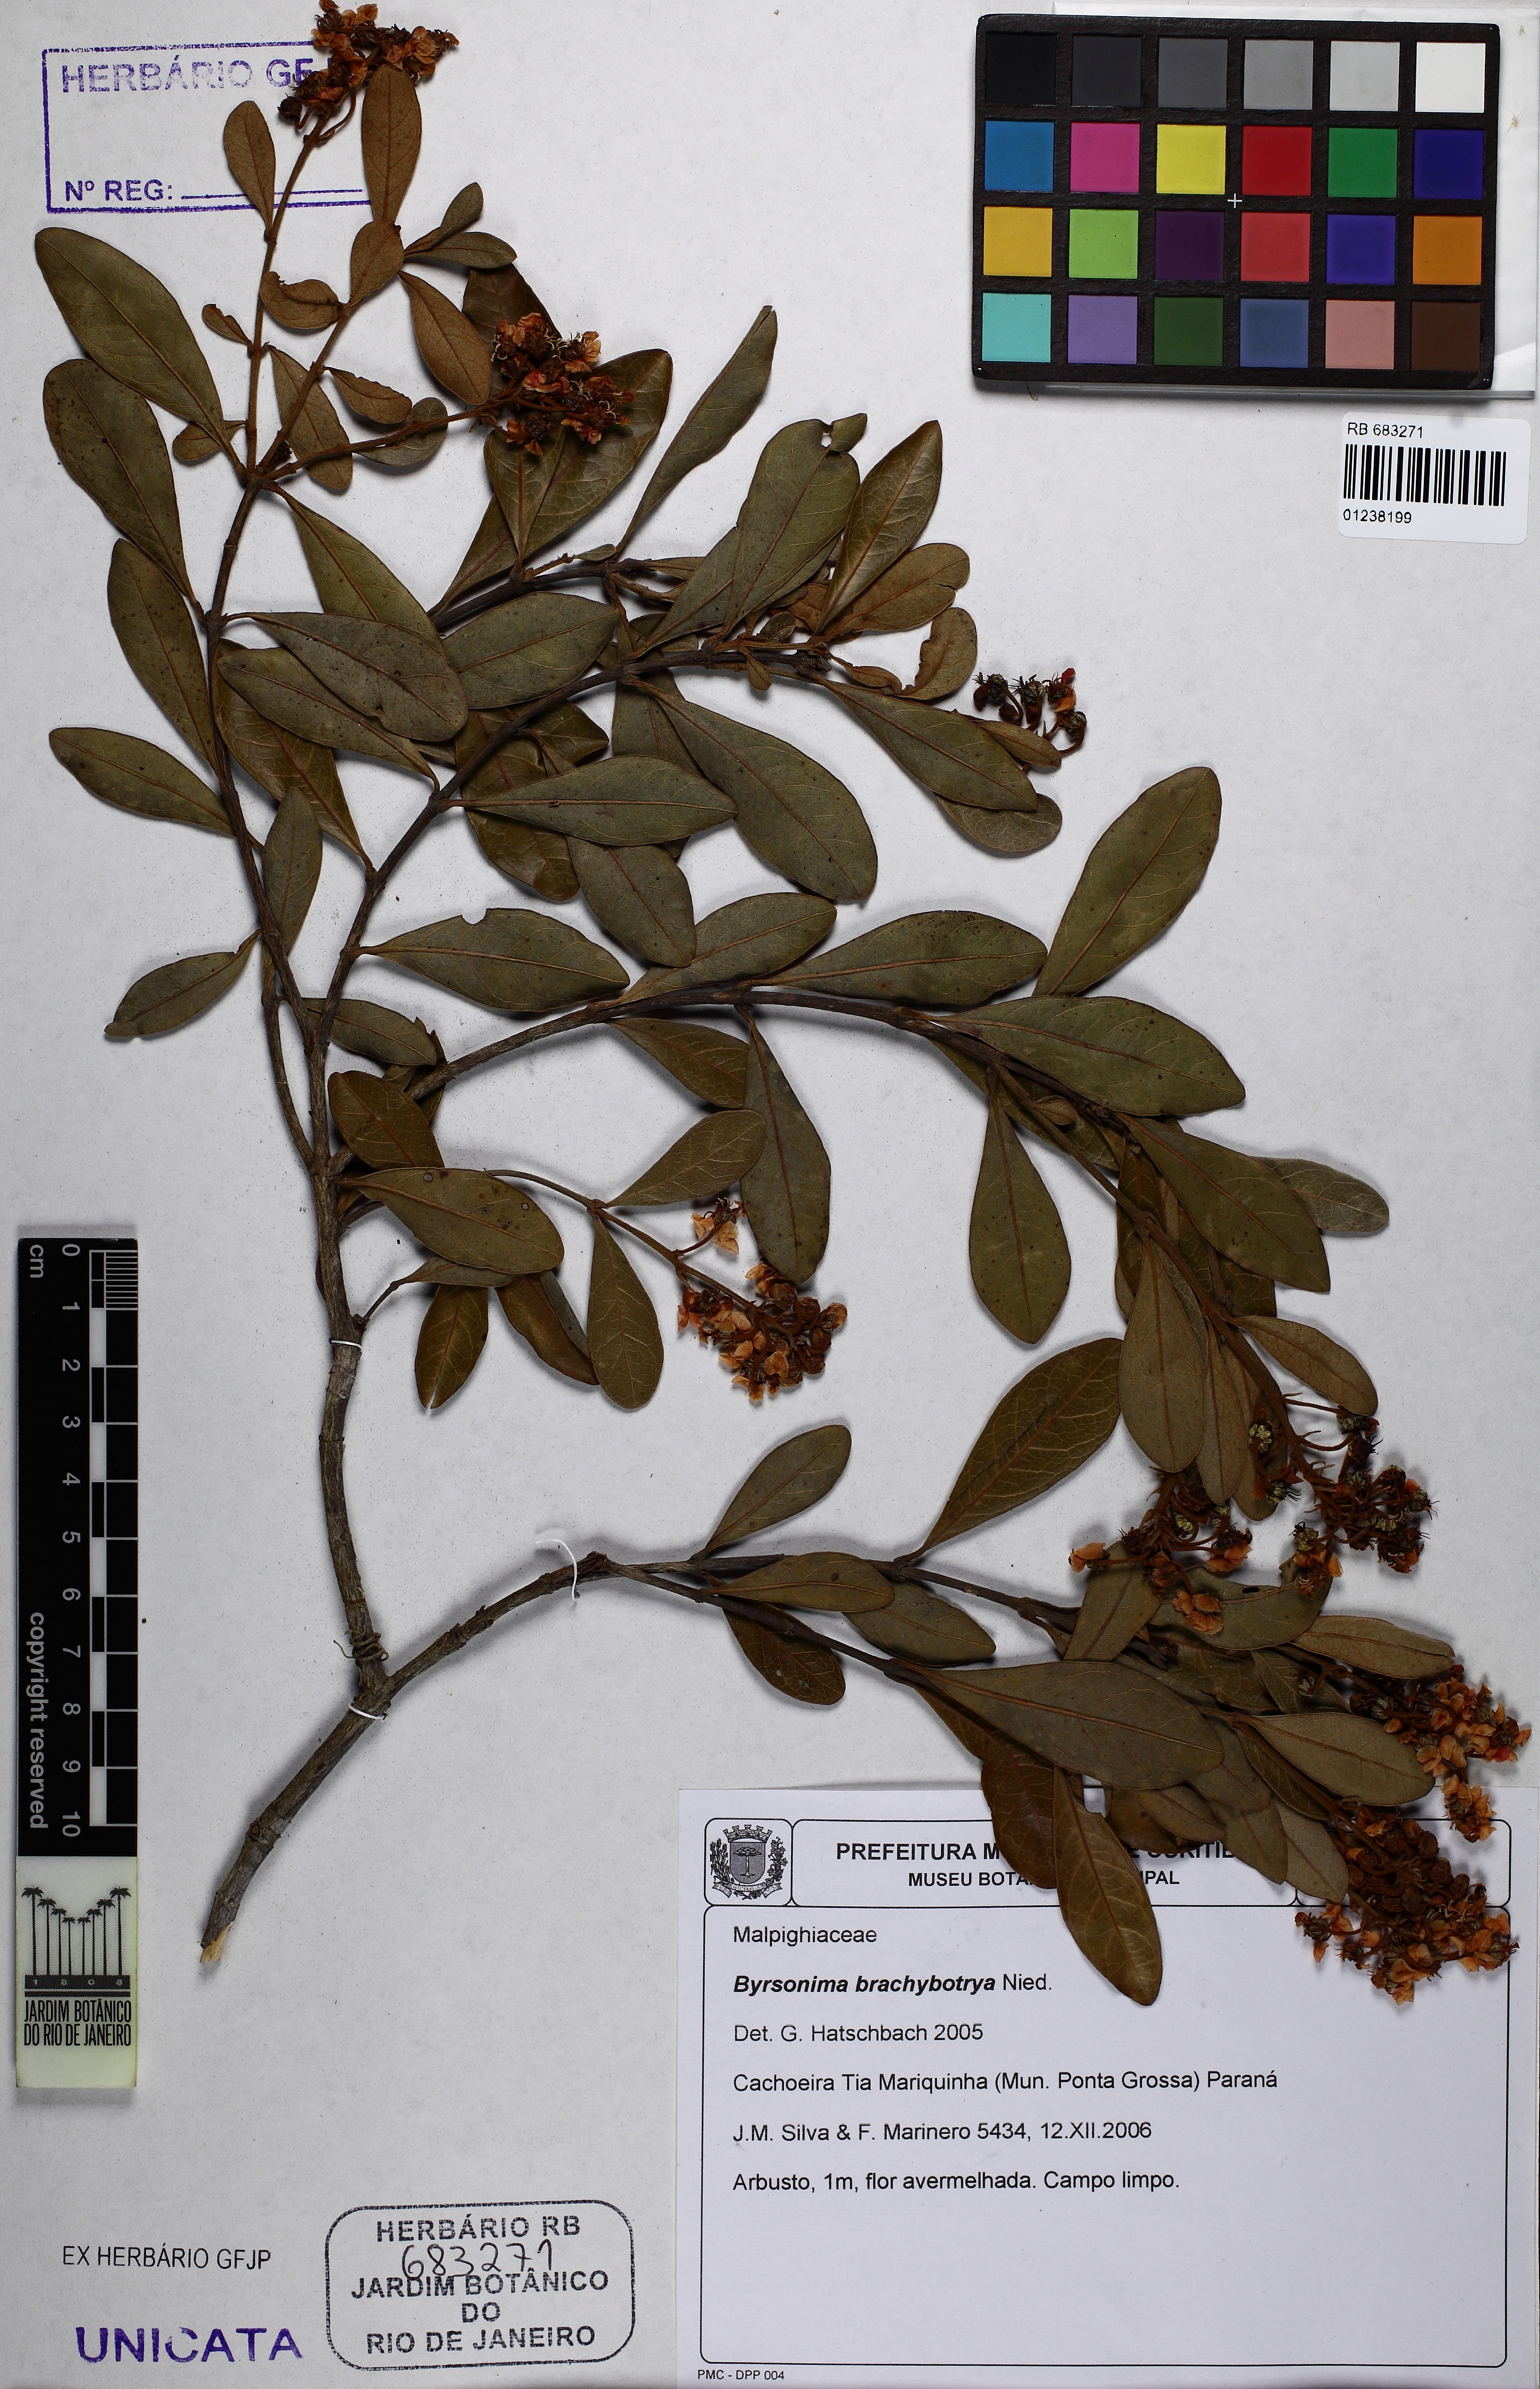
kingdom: Plantae
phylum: Tracheophyta
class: Magnoliopsida
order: Malpighiales
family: Malpighiaceae
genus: Byrsonima
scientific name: Byrsonima brachybotrya
